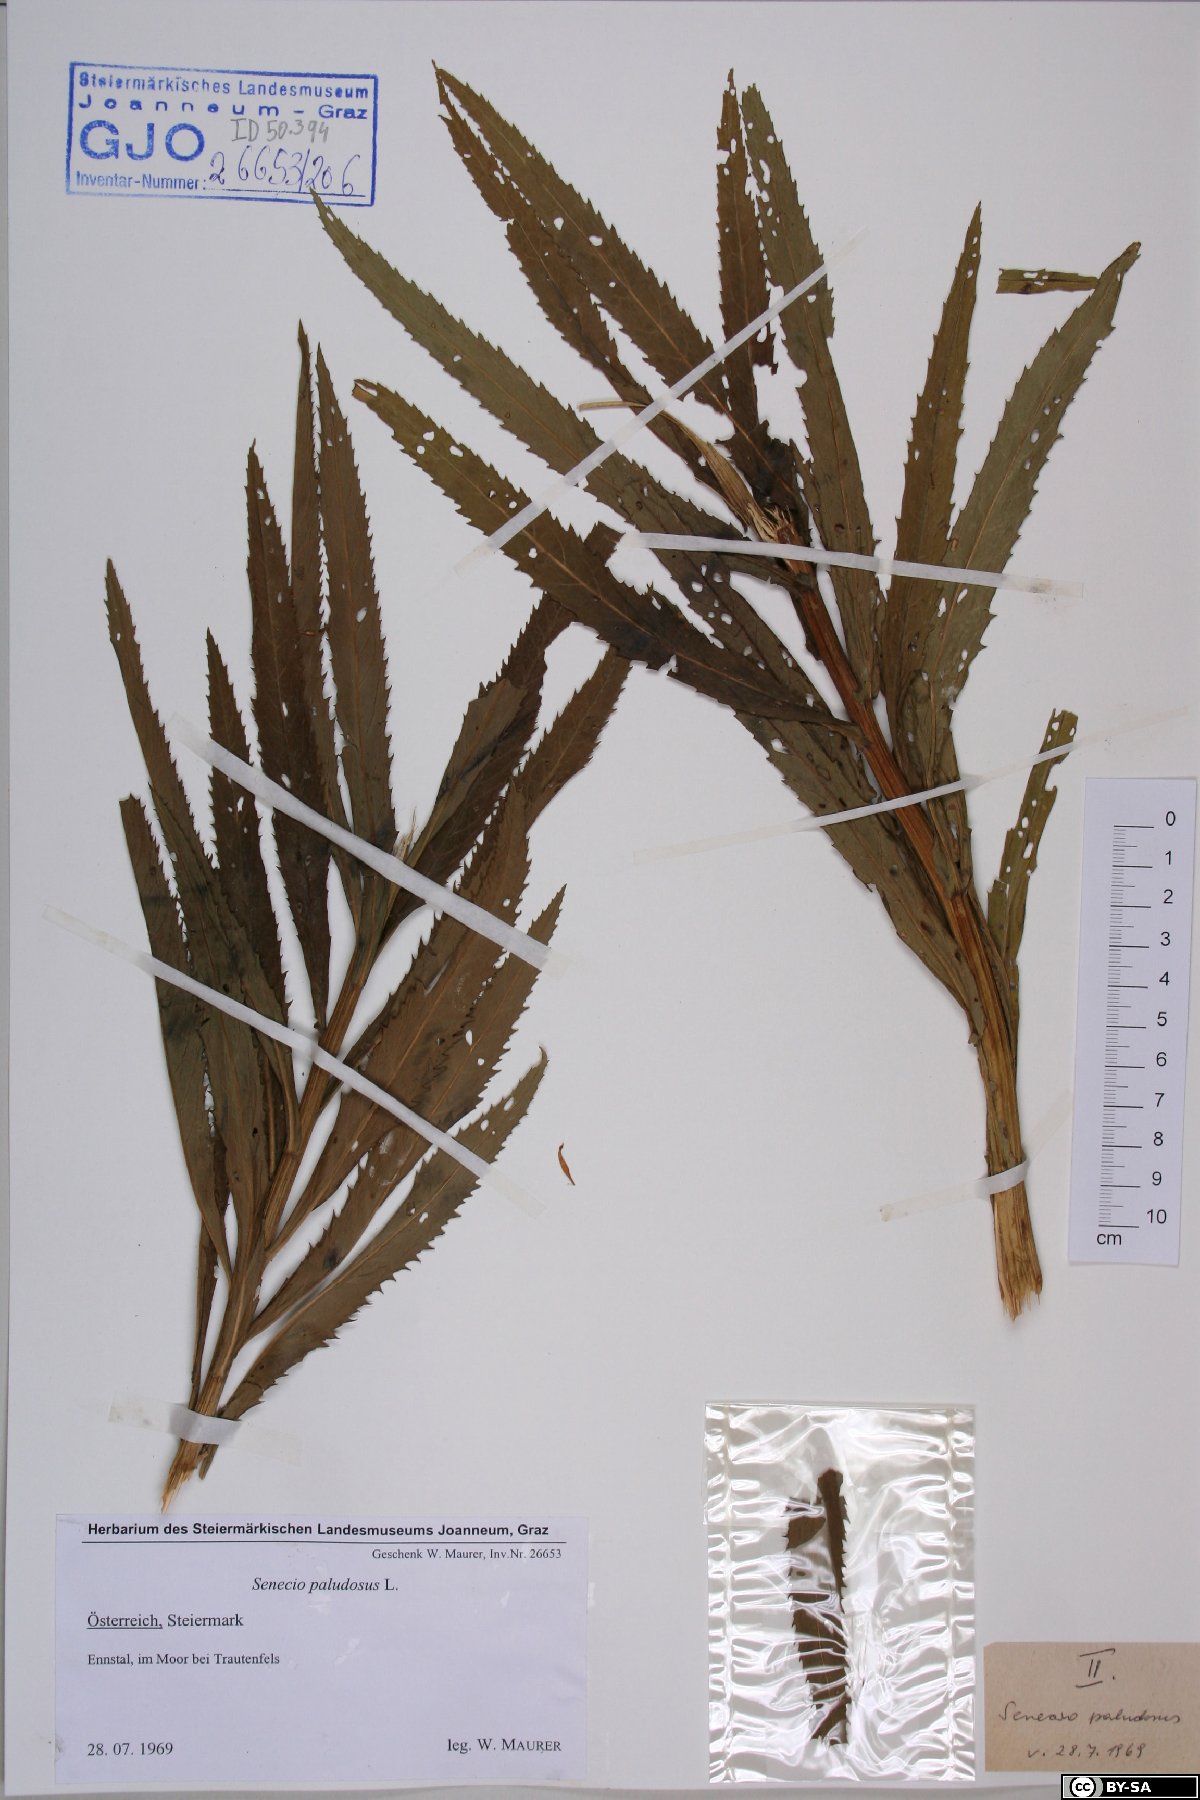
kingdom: Plantae
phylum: Tracheophyta
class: Magnoliopsida
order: Asterales
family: Asteraceae
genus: Jacobaea
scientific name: Jacobaea paludosa
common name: Fen ragwort
